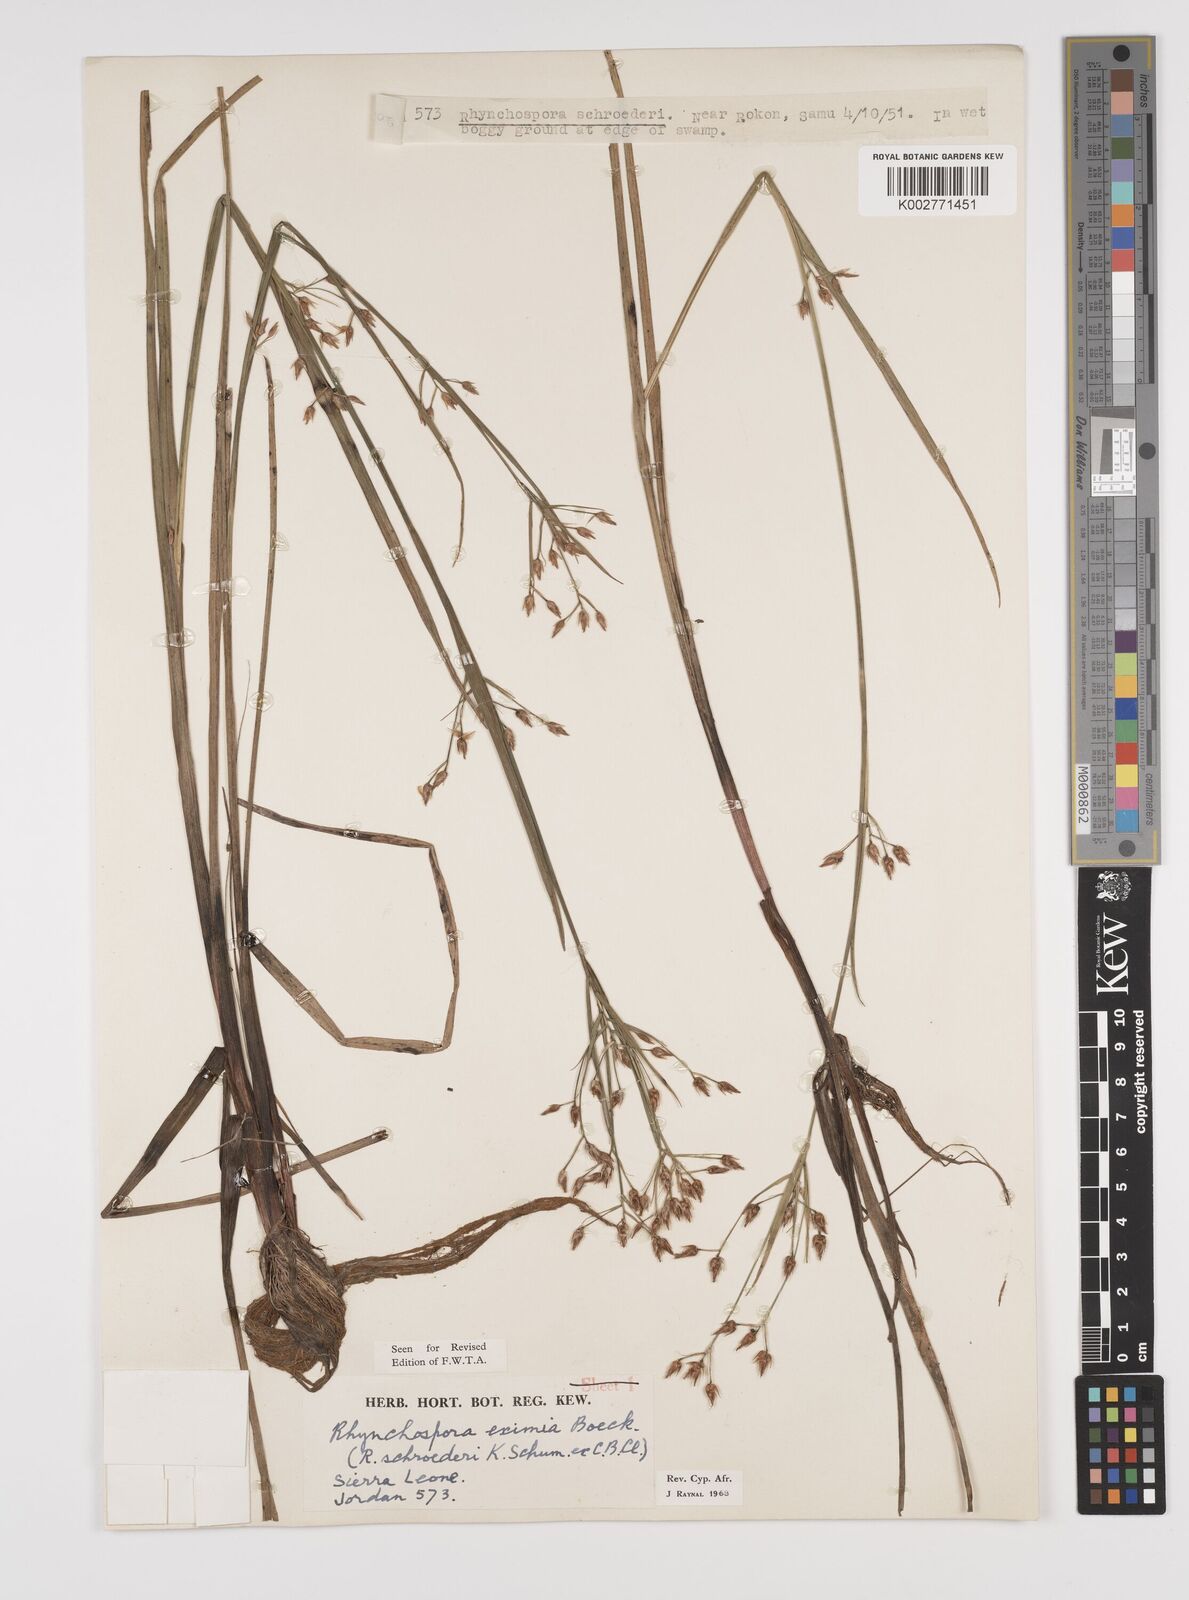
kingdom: Plantae
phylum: Tracheophyta
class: Liliopsida
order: Poales
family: Cyperaceae
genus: Rhynchospora
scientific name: Rhynchospora eximia
